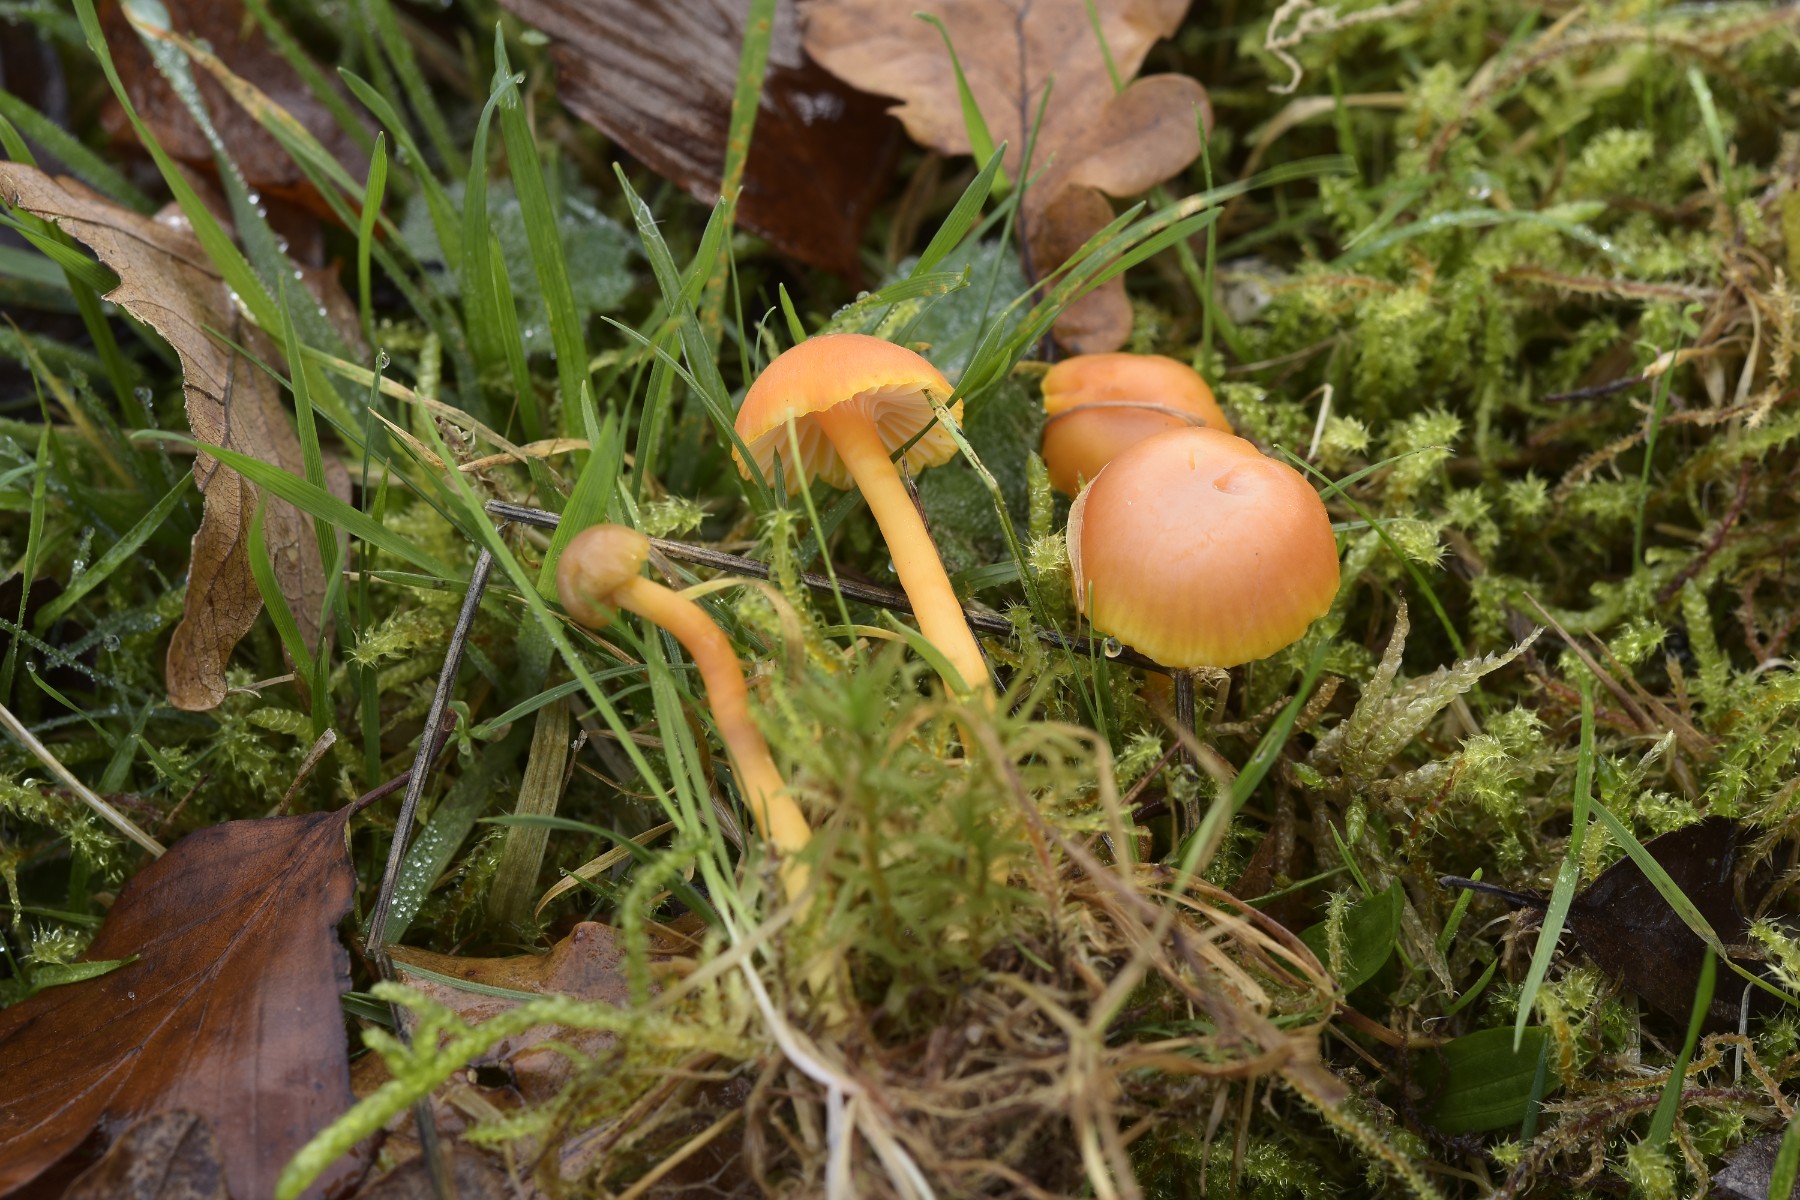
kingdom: Fungi
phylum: Basidiomycota
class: Agaricomycetes
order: Agaricales
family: Hygrophoraceae
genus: Hygrocybe
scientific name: Hygrocybe reidii
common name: honning-vokshat
